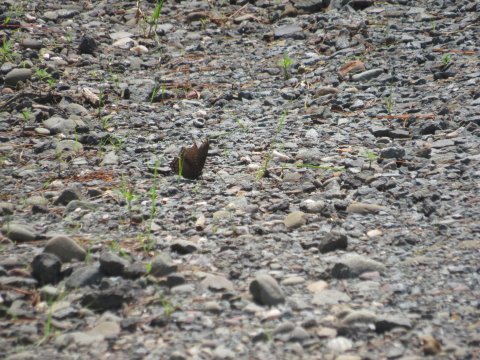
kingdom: Animalia
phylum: Arthropoda
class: Insecta
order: Lepidoptera
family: Nymphalidae
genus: Limenitis
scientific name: Limenitis arthemis
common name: Red-spotted Admiral
